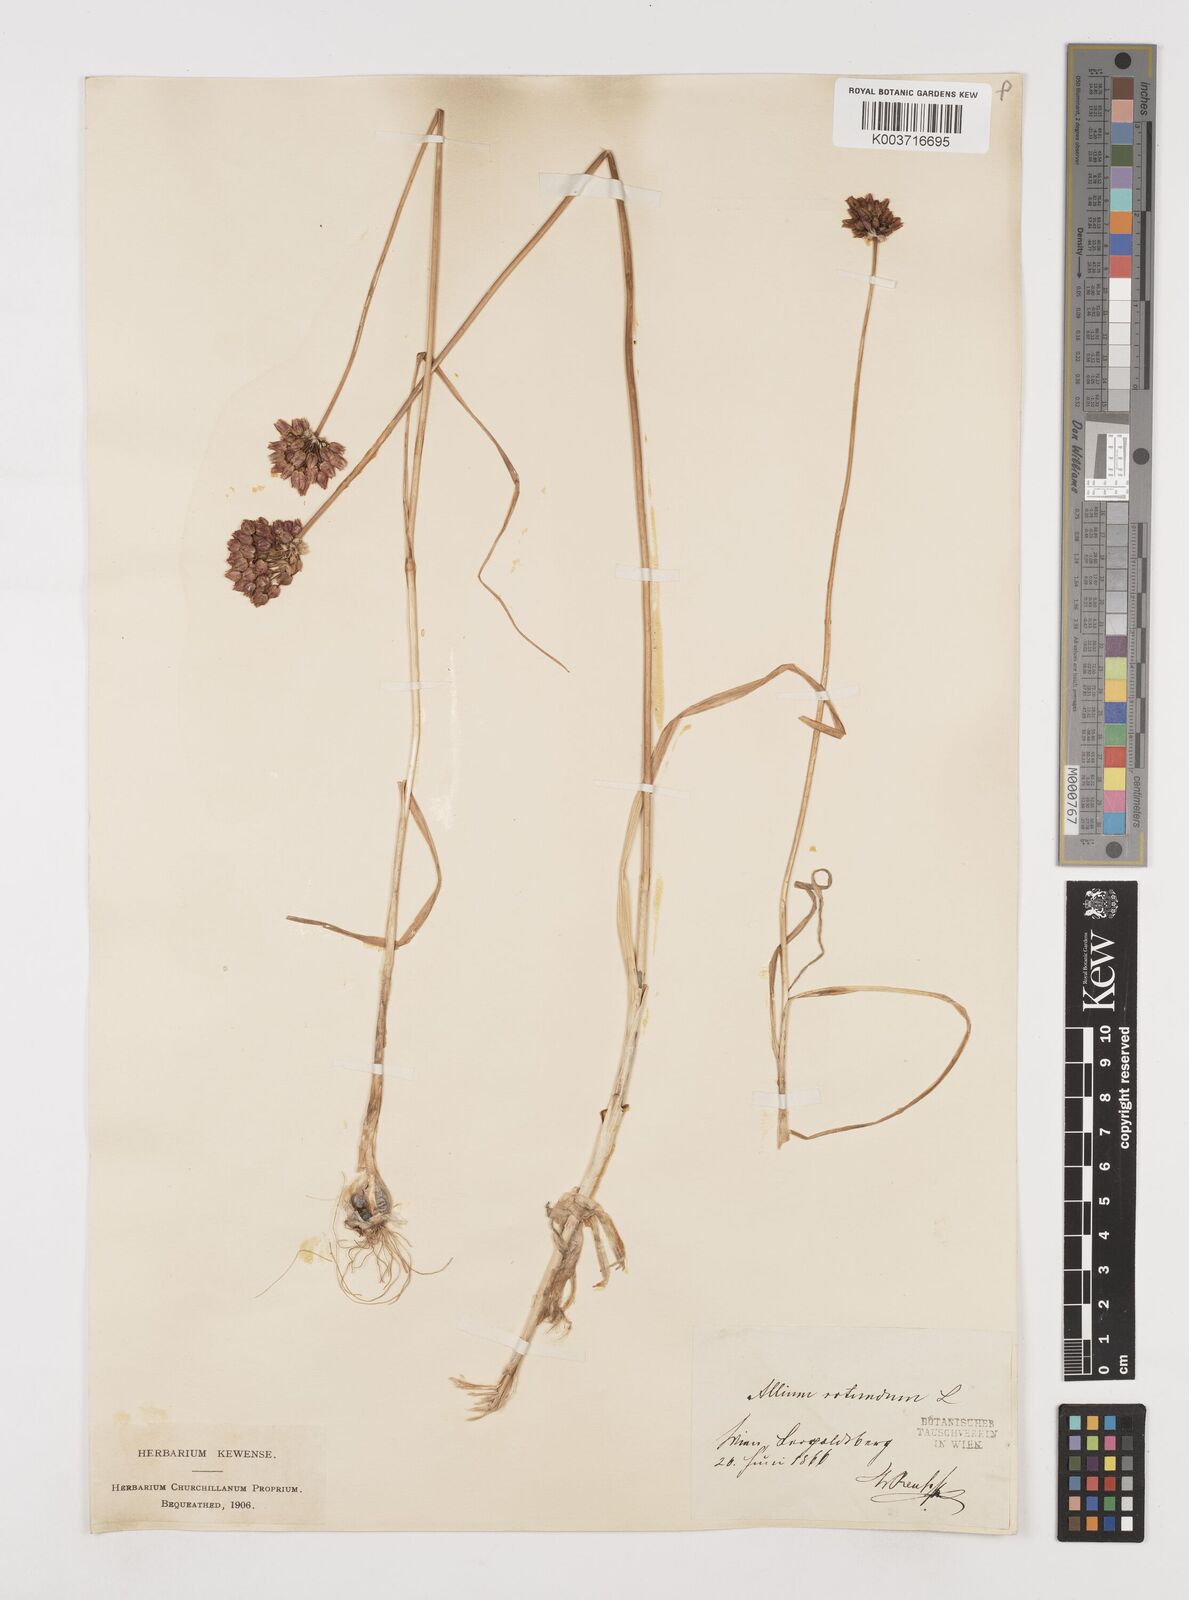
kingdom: Plantae
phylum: Tracheophyta
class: Liliopsida
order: Asparagales
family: Amaryllidaceae
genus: Allium
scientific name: Allium rotundum
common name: Sand leek
